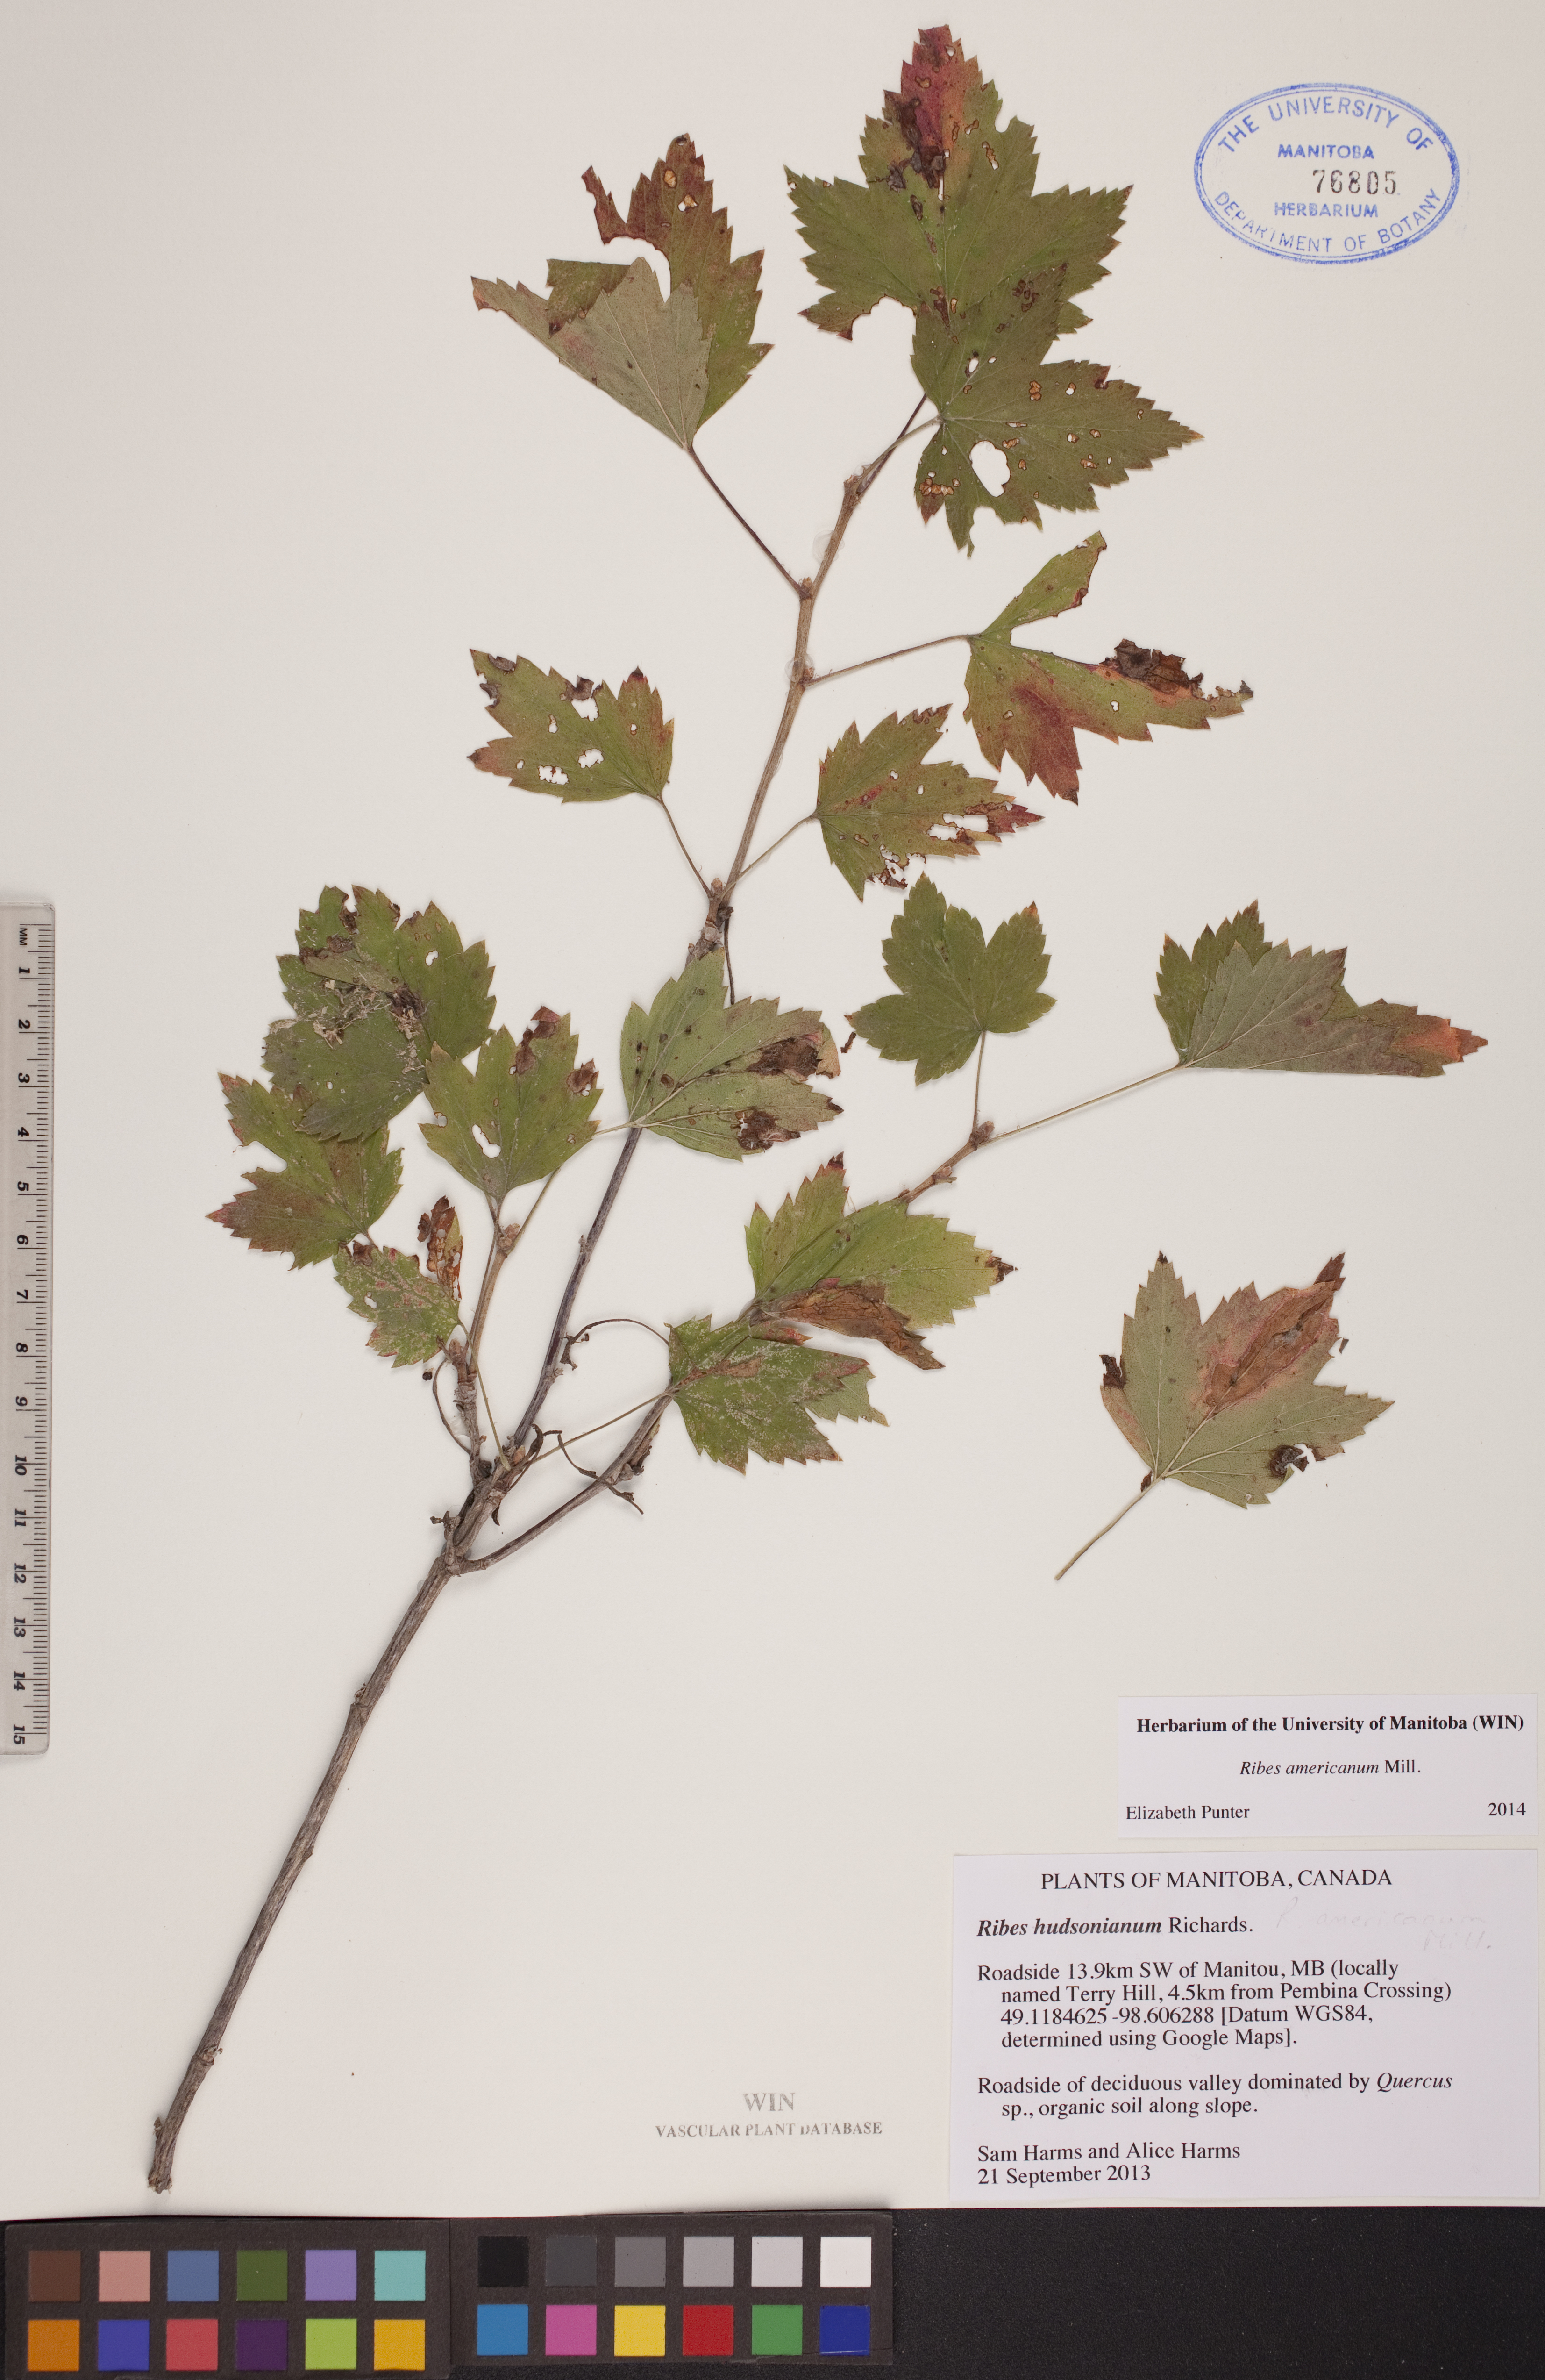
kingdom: Plantae
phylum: Tracheophyta
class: Magnoliopsida
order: Saxifragales
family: Grossulariaceae
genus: Ribes
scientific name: Ribes americanum
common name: American black currant
